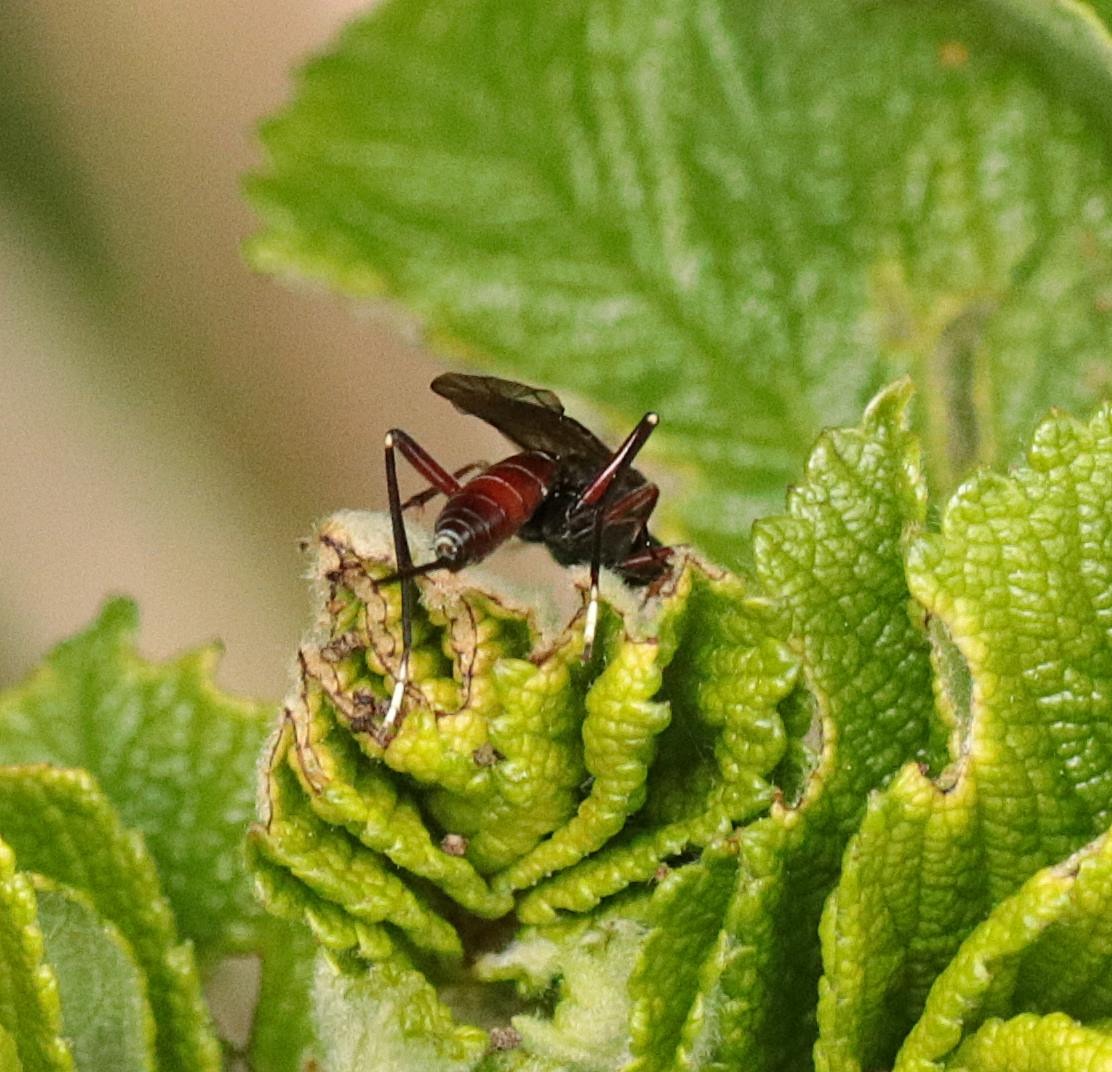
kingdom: Animalia
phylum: Arthropoda
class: Insecta
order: Hymenoptera
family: Ichneumonidae
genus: Alloplasta
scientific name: Alloplasta piceator
